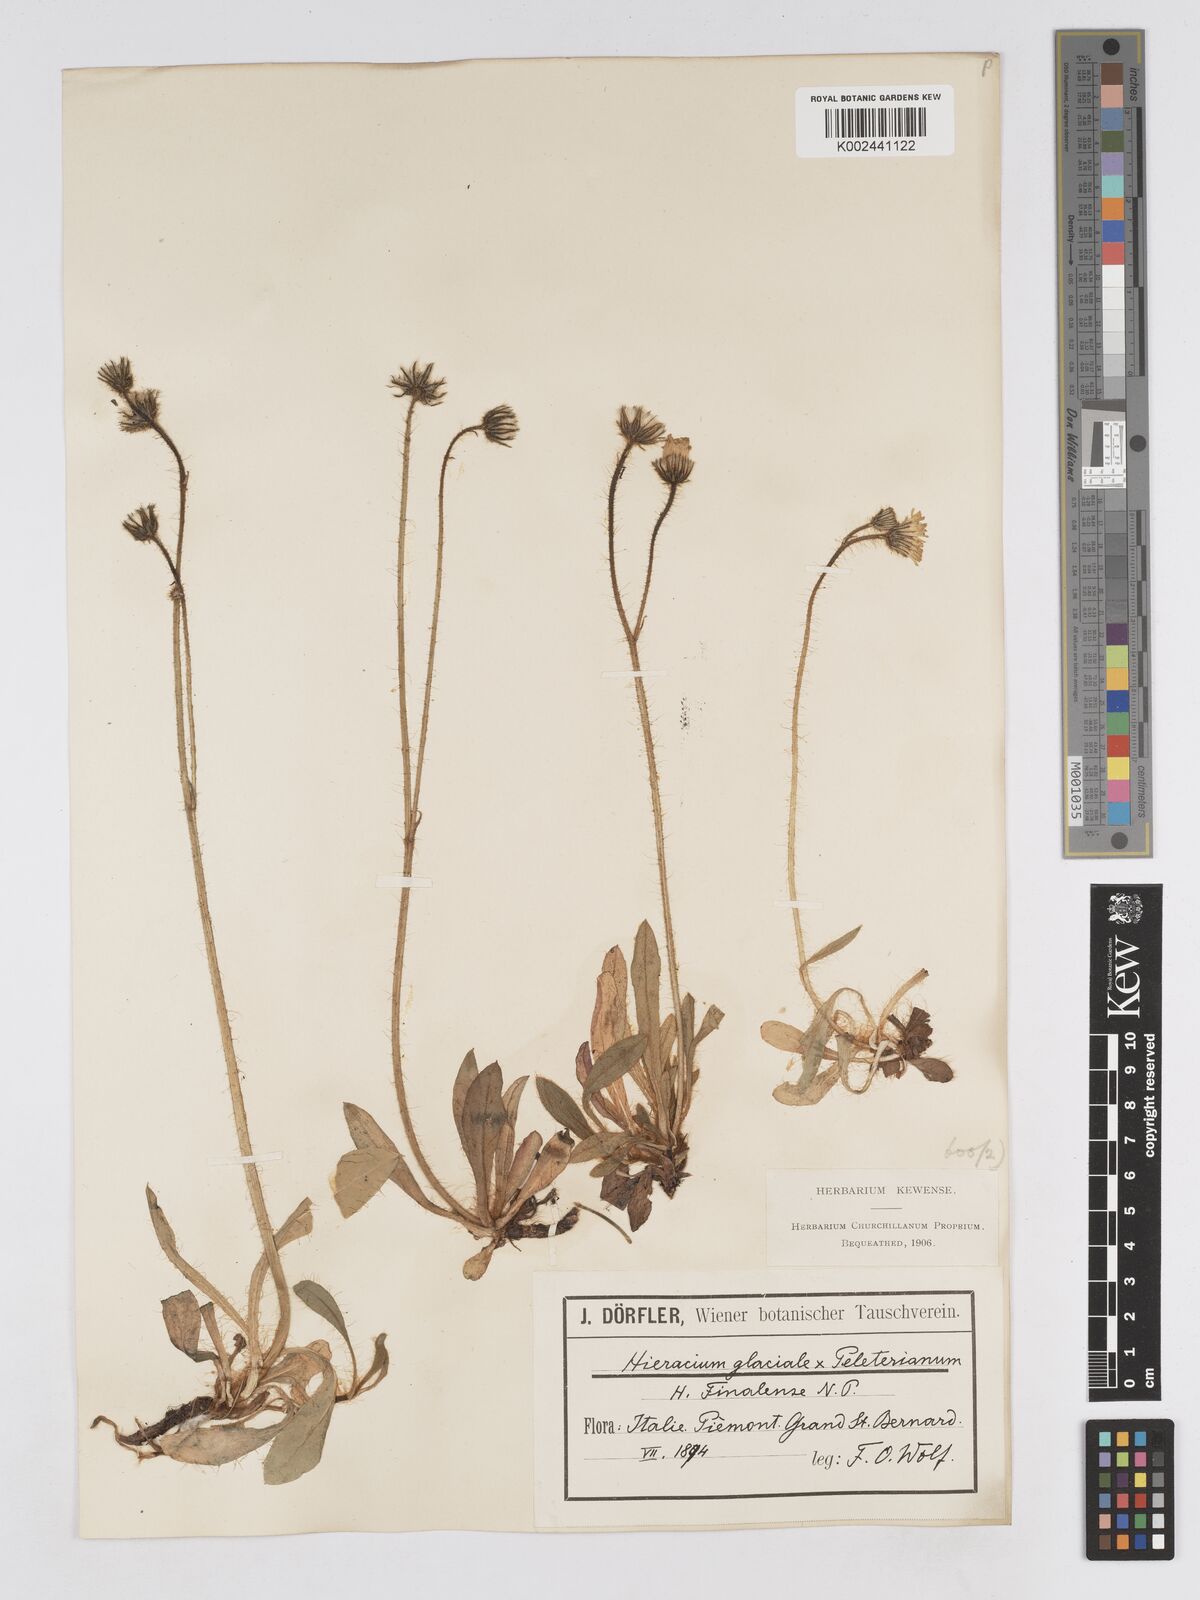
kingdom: Plantae
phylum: Tracheophyta
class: Magnoliopsida
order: Asterales
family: Asteraceae
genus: Pilosella
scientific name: Pilosella subrubens
